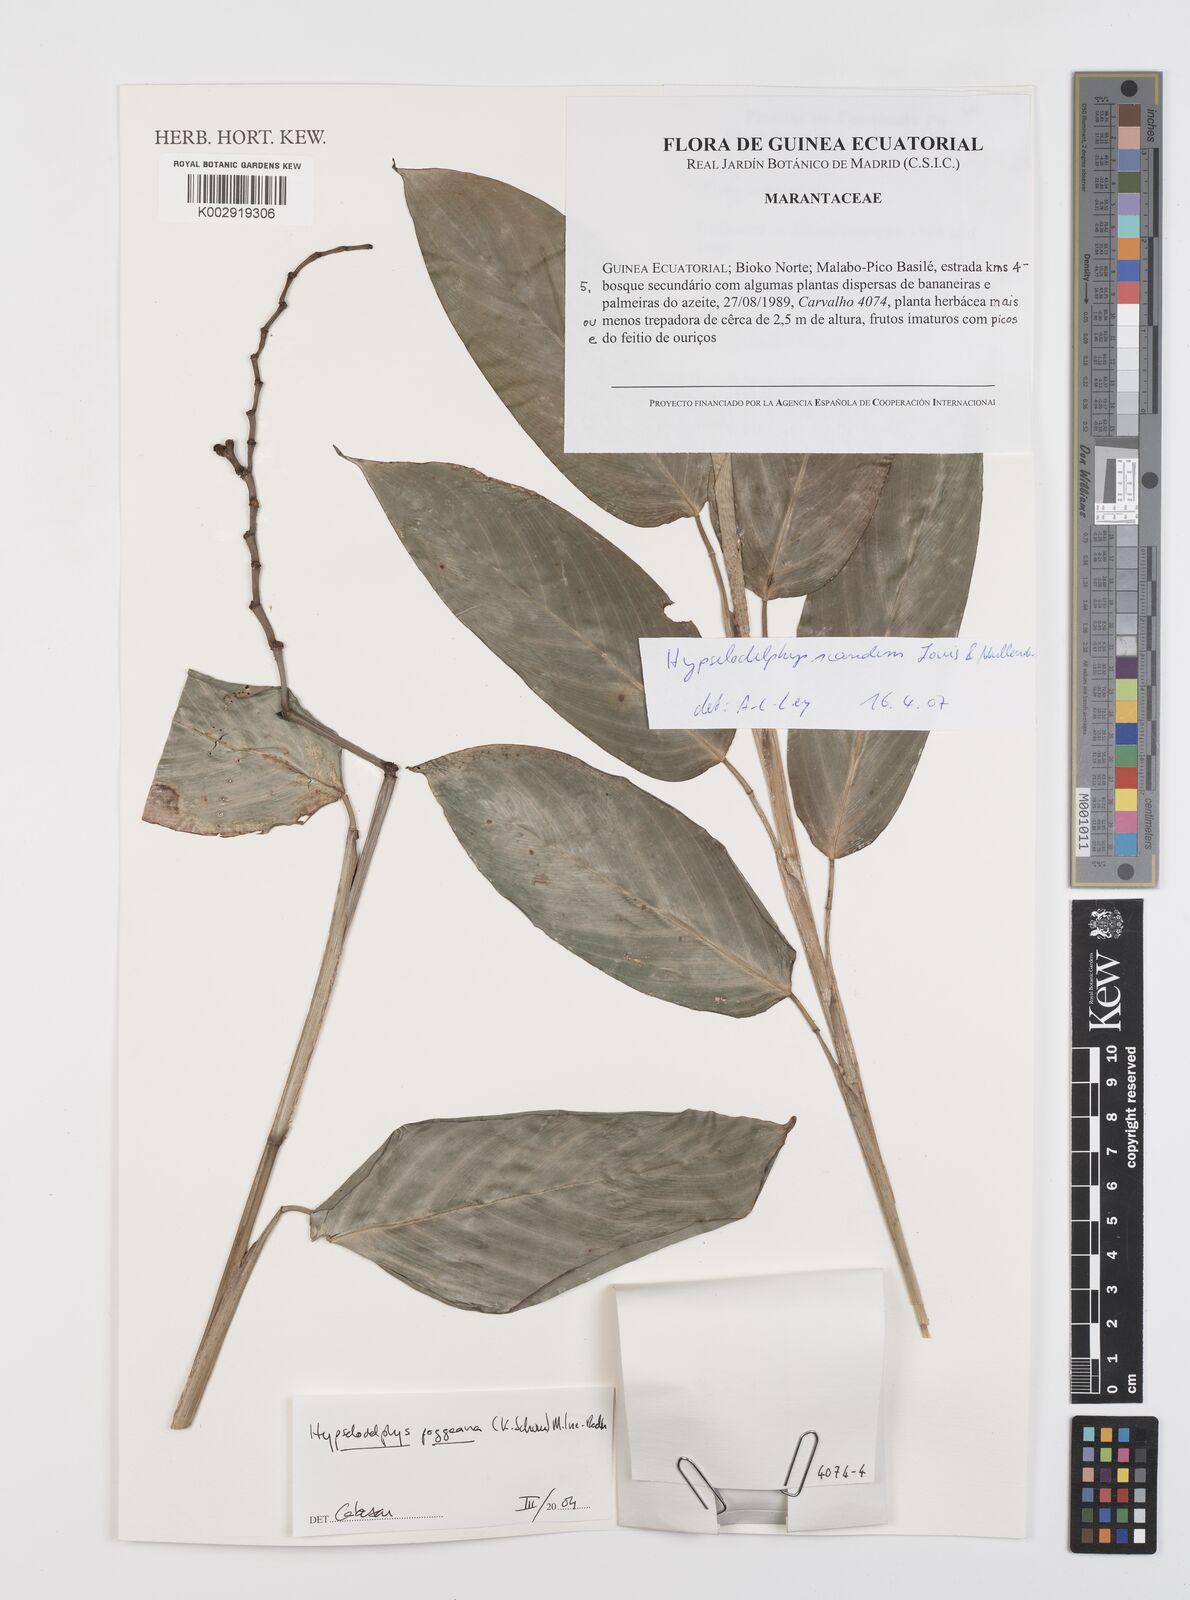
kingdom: Plantae
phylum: Tracheophyta
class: Liliopsida
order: Zingiberales
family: Marantaceae
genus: Hypselodelphys
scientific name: Hypselodelphys scandens
